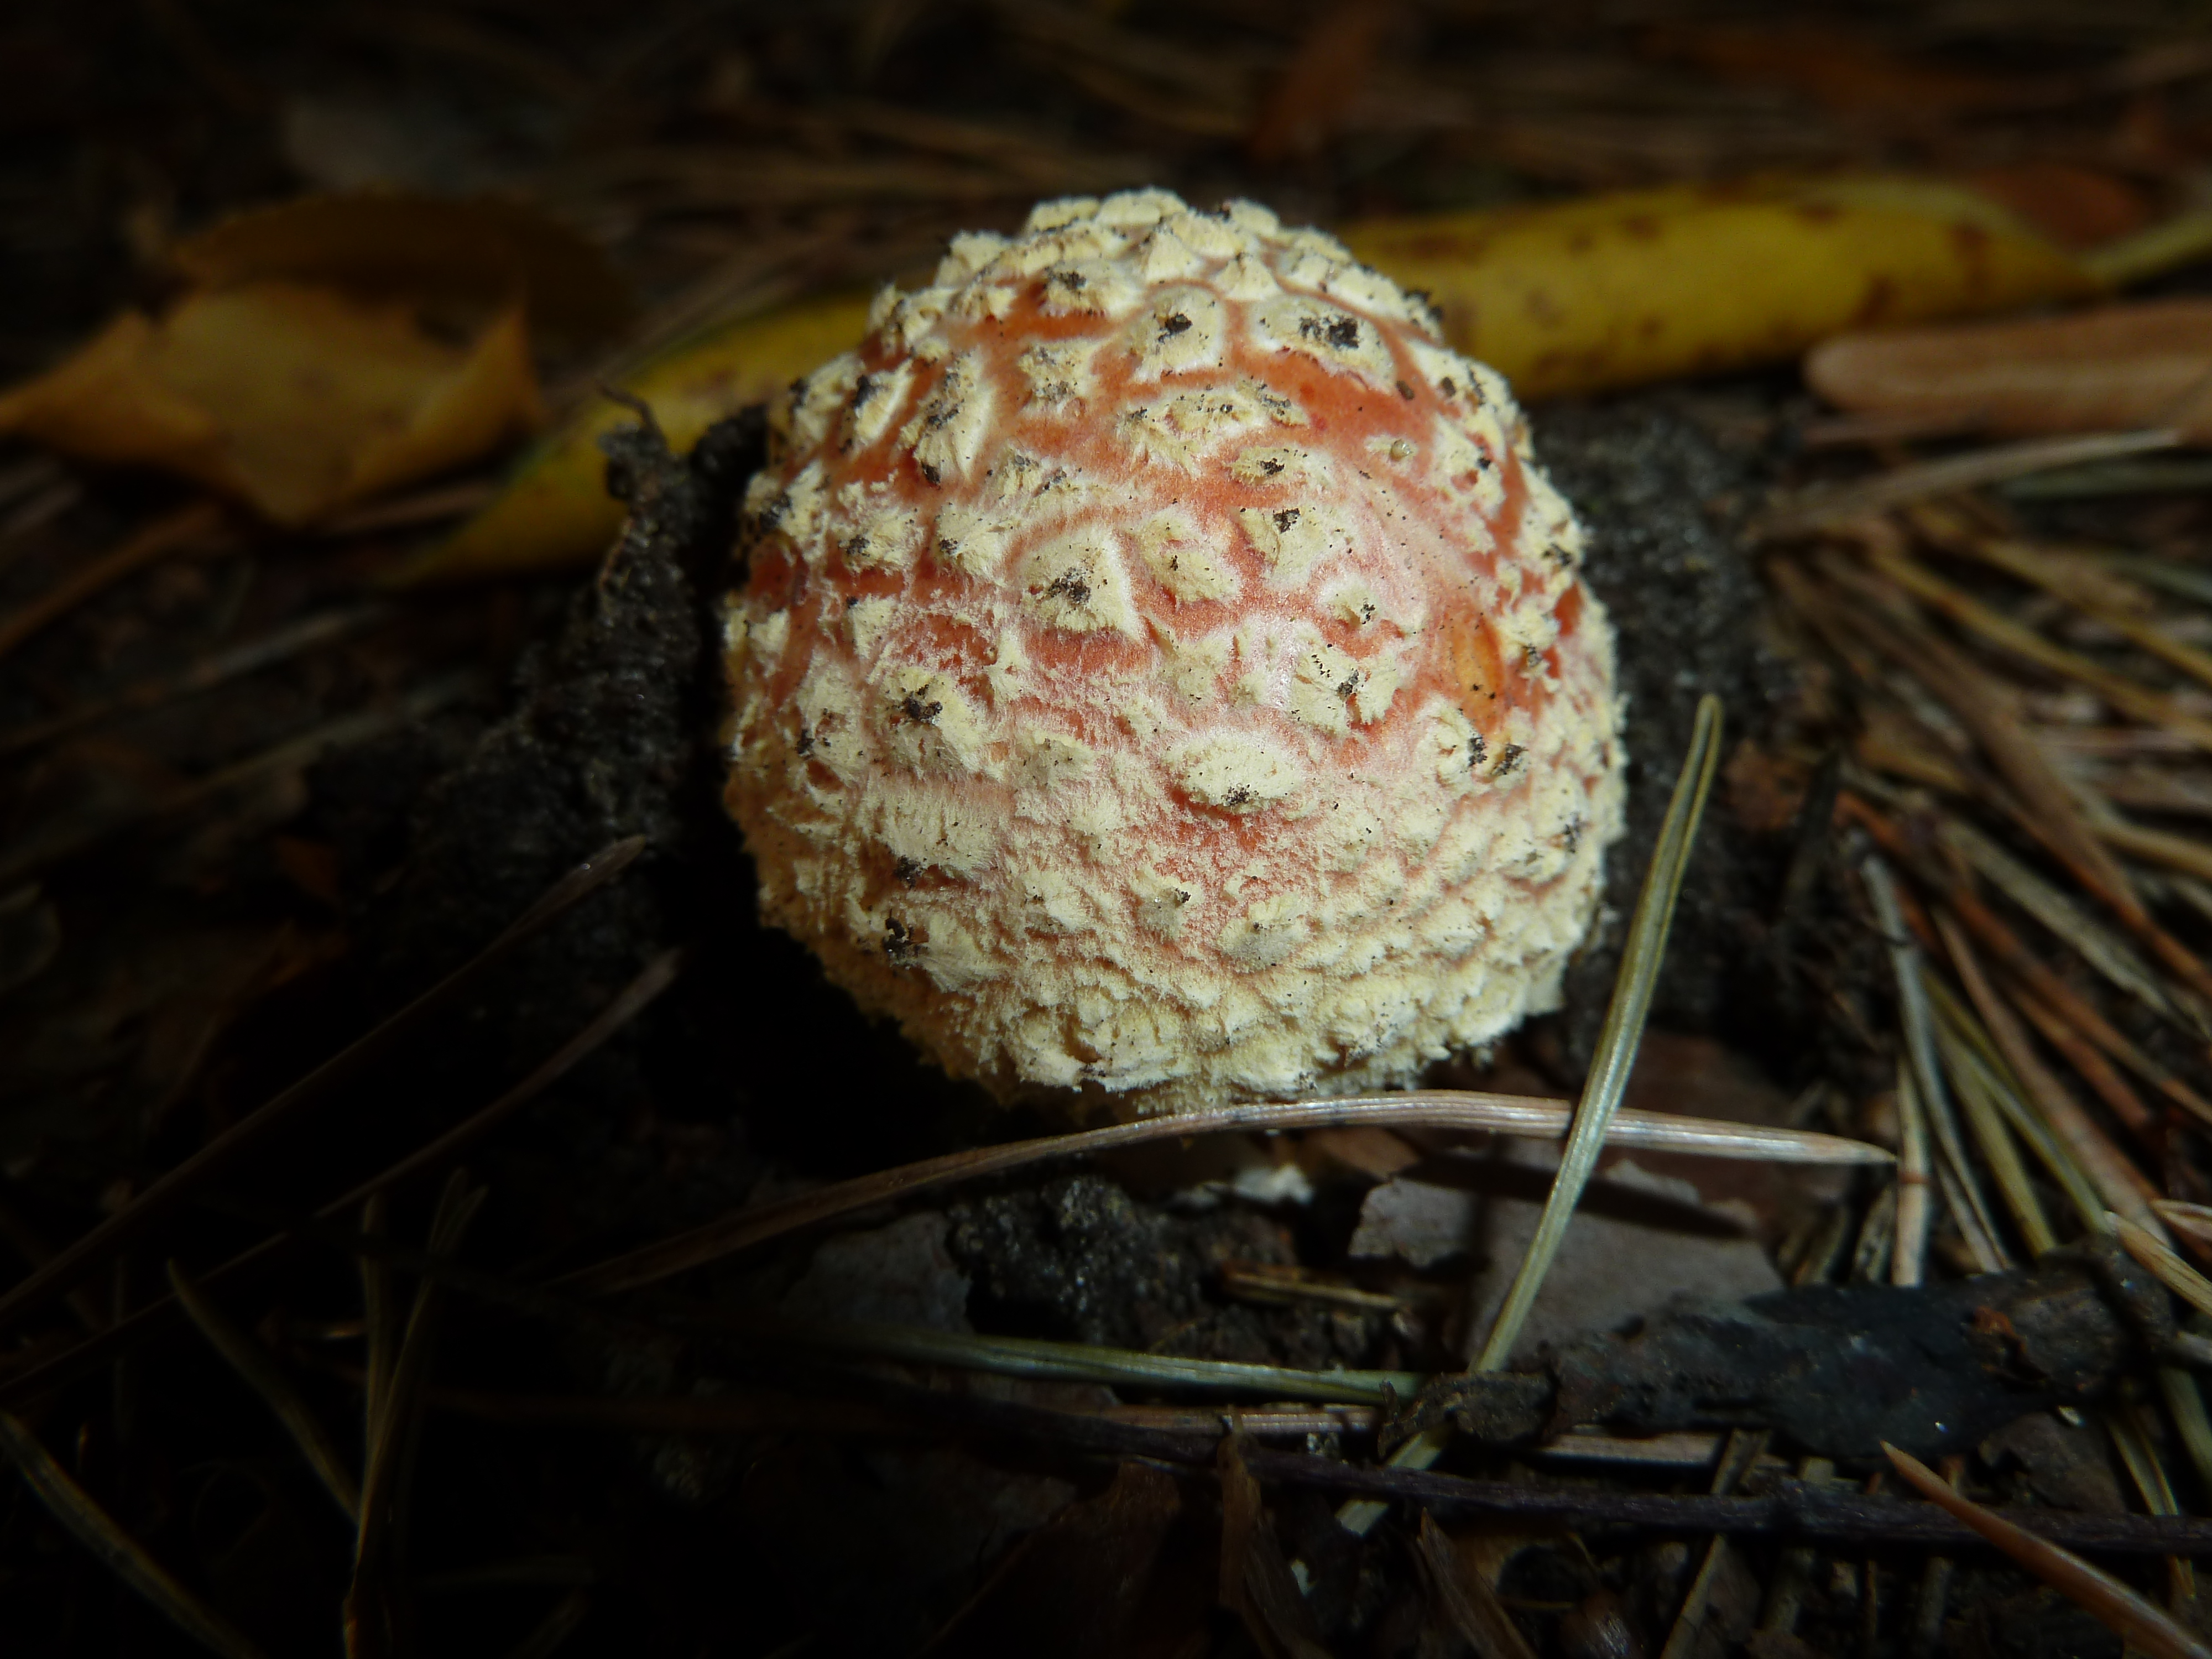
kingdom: Fungi
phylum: Basidiomycota
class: Agaricomycetes
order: Agaricales
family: Amanitaceae
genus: Amanita
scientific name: Amanita muscaria
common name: Fly agaric
